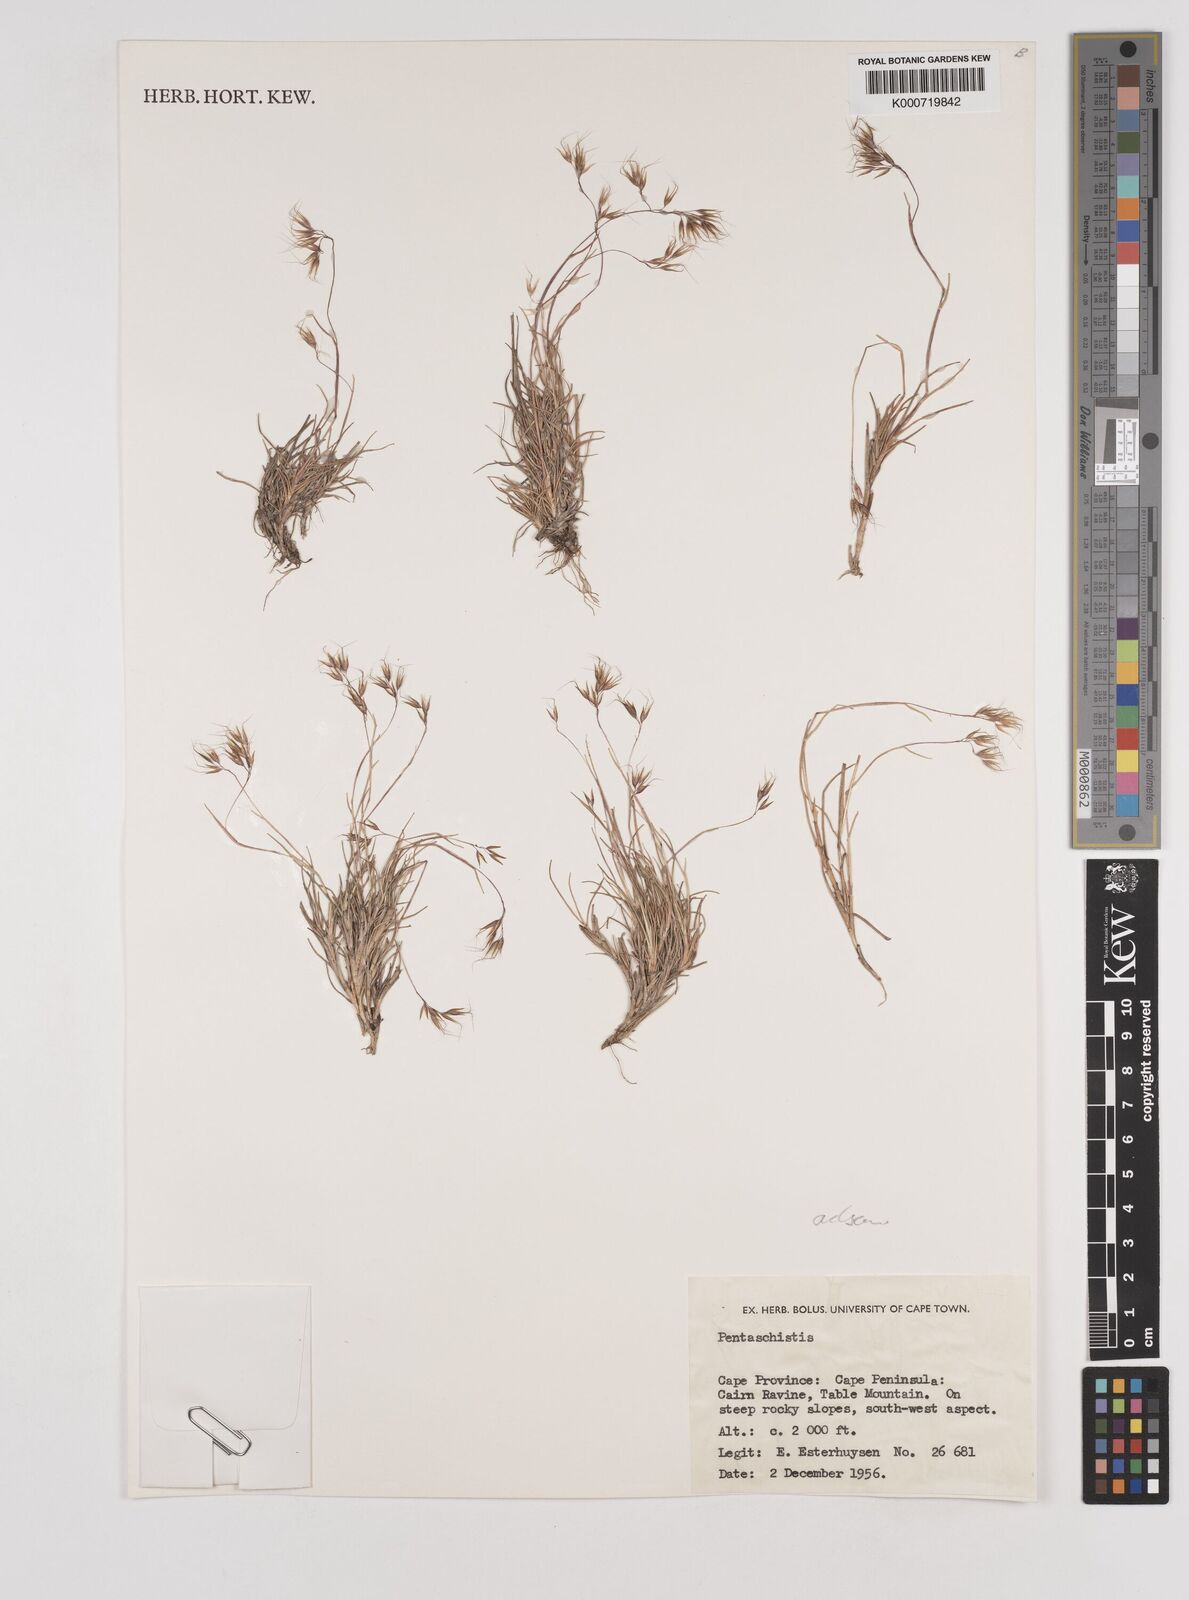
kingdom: Plantae
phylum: Tracheophyta
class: Liliopsida
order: Poales
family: Poaceae
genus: Pentaschistis
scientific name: Pentaschistis
